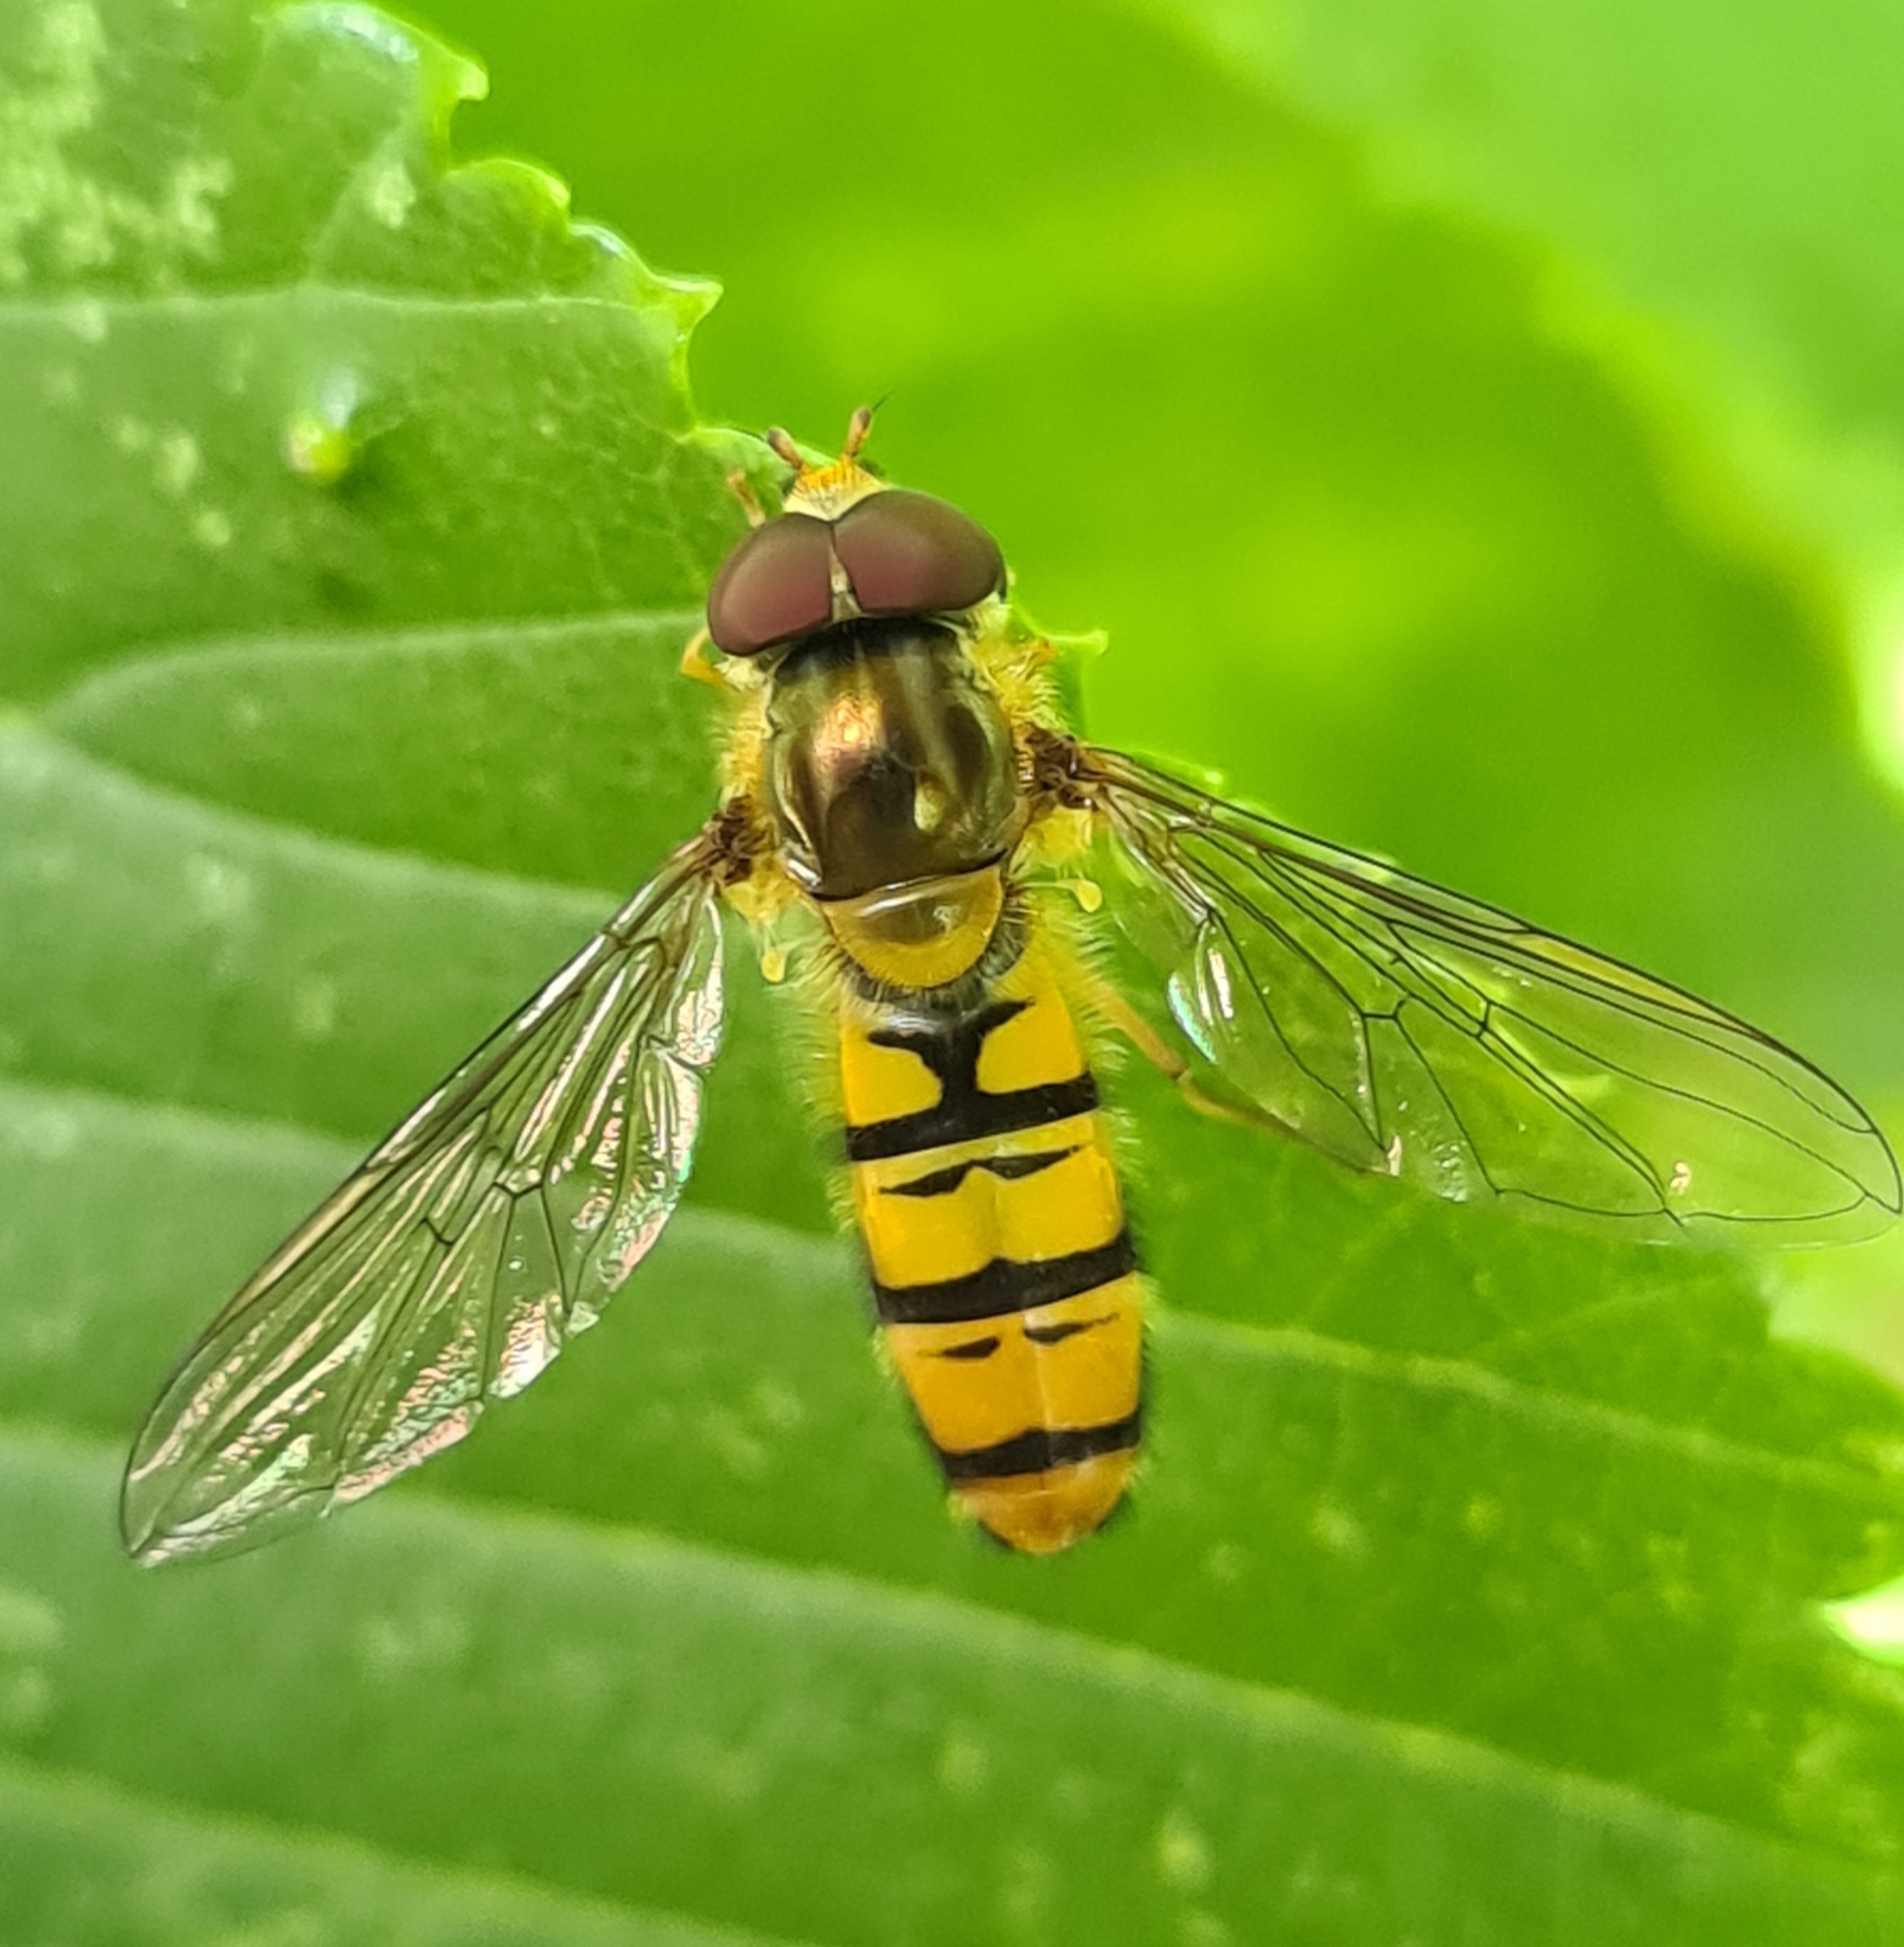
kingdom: Animalia
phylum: Arthropoda
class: Insecta
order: Diptera
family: Syrphidae
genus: Episyrphus
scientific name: Episyrphus balteatus
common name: Dobbeltbåndet svirreflue
